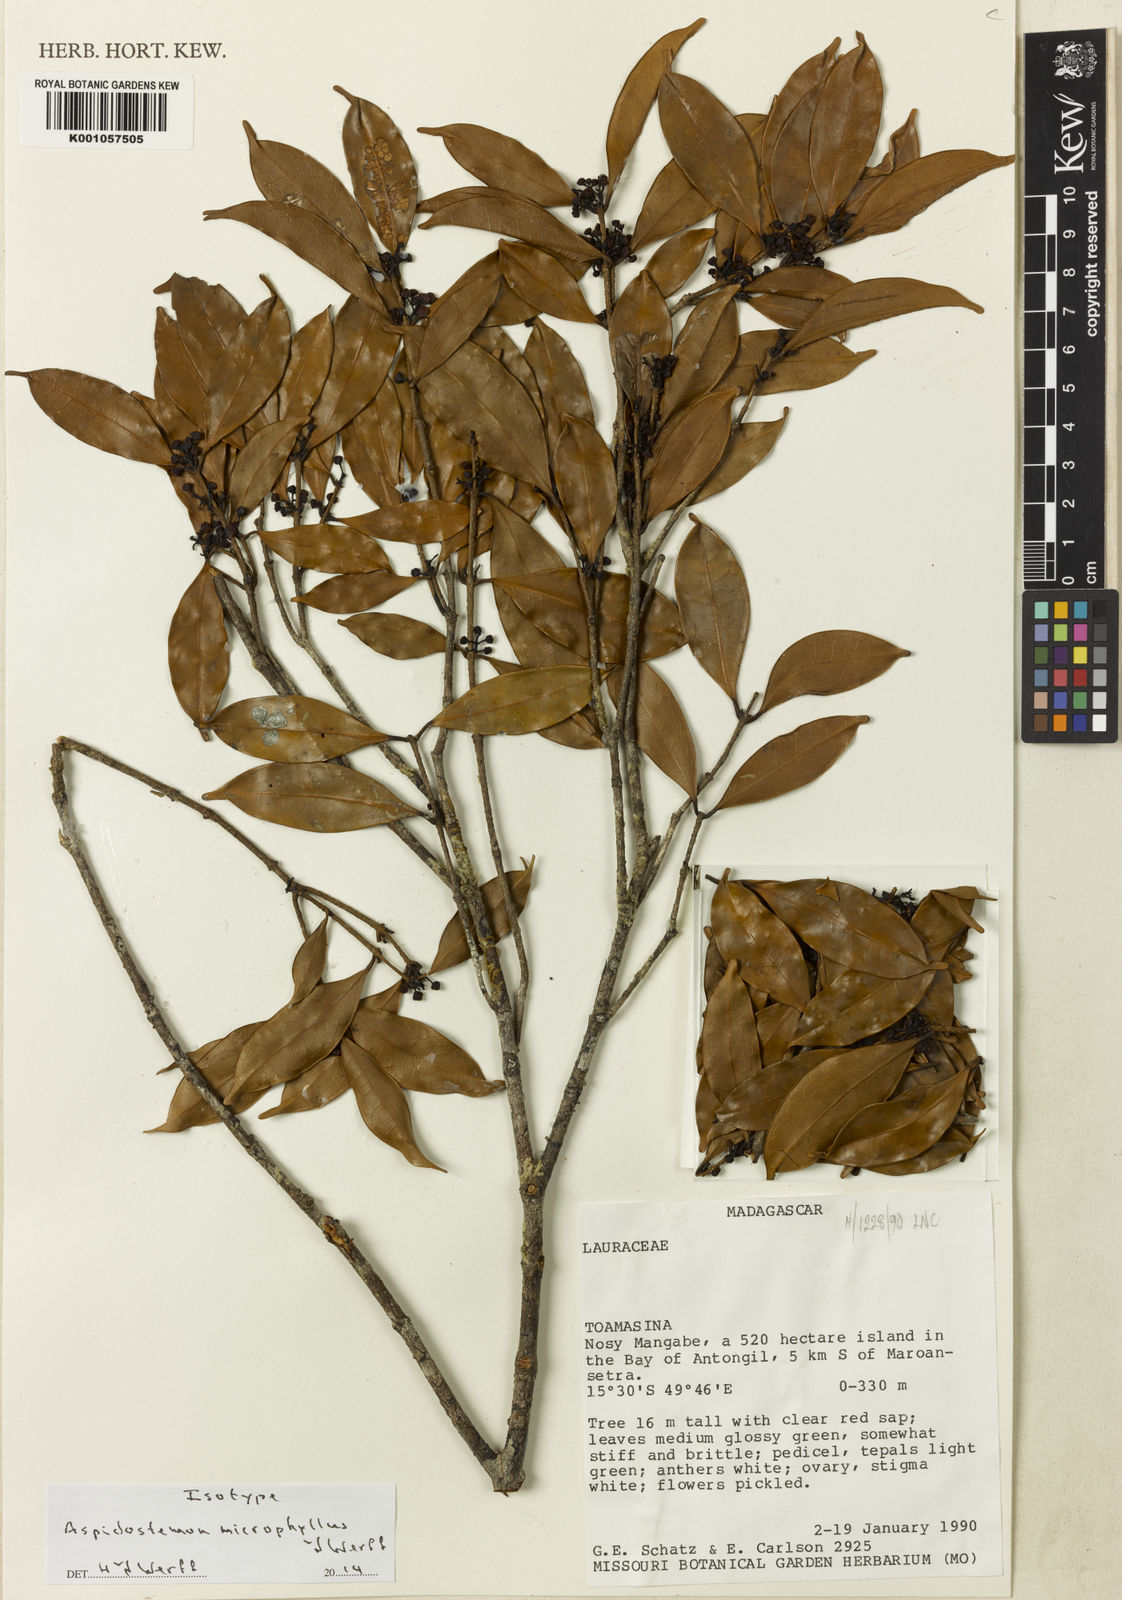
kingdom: Plantae
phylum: Tracheophyta
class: Magnoliopsida
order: Laurales
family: Lauraceae
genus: Aspidostemon
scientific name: Aspidostemon microphyllus
